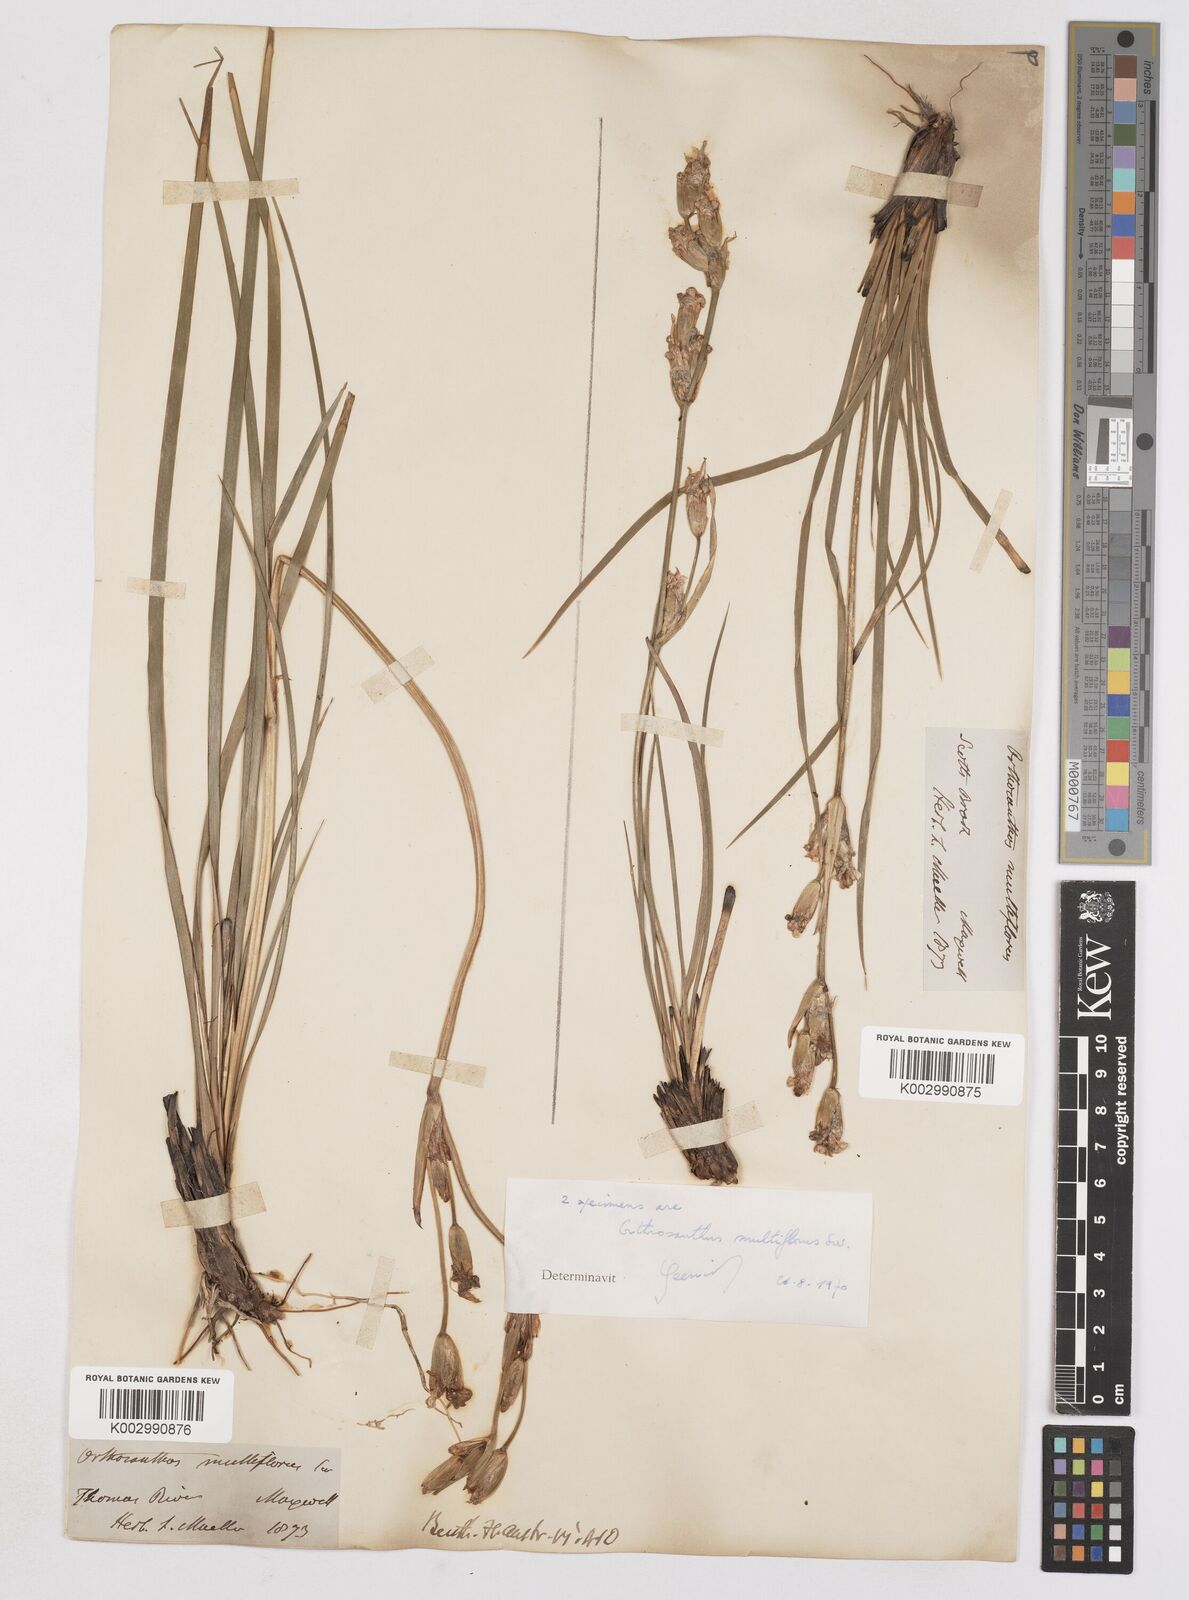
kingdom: Plantae
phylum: Tracheophyta
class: Liliopsida
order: Asparagales
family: Iridaceae
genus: Orthrosanthus
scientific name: Orthrosanthus multiflorus
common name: Morning-flag
